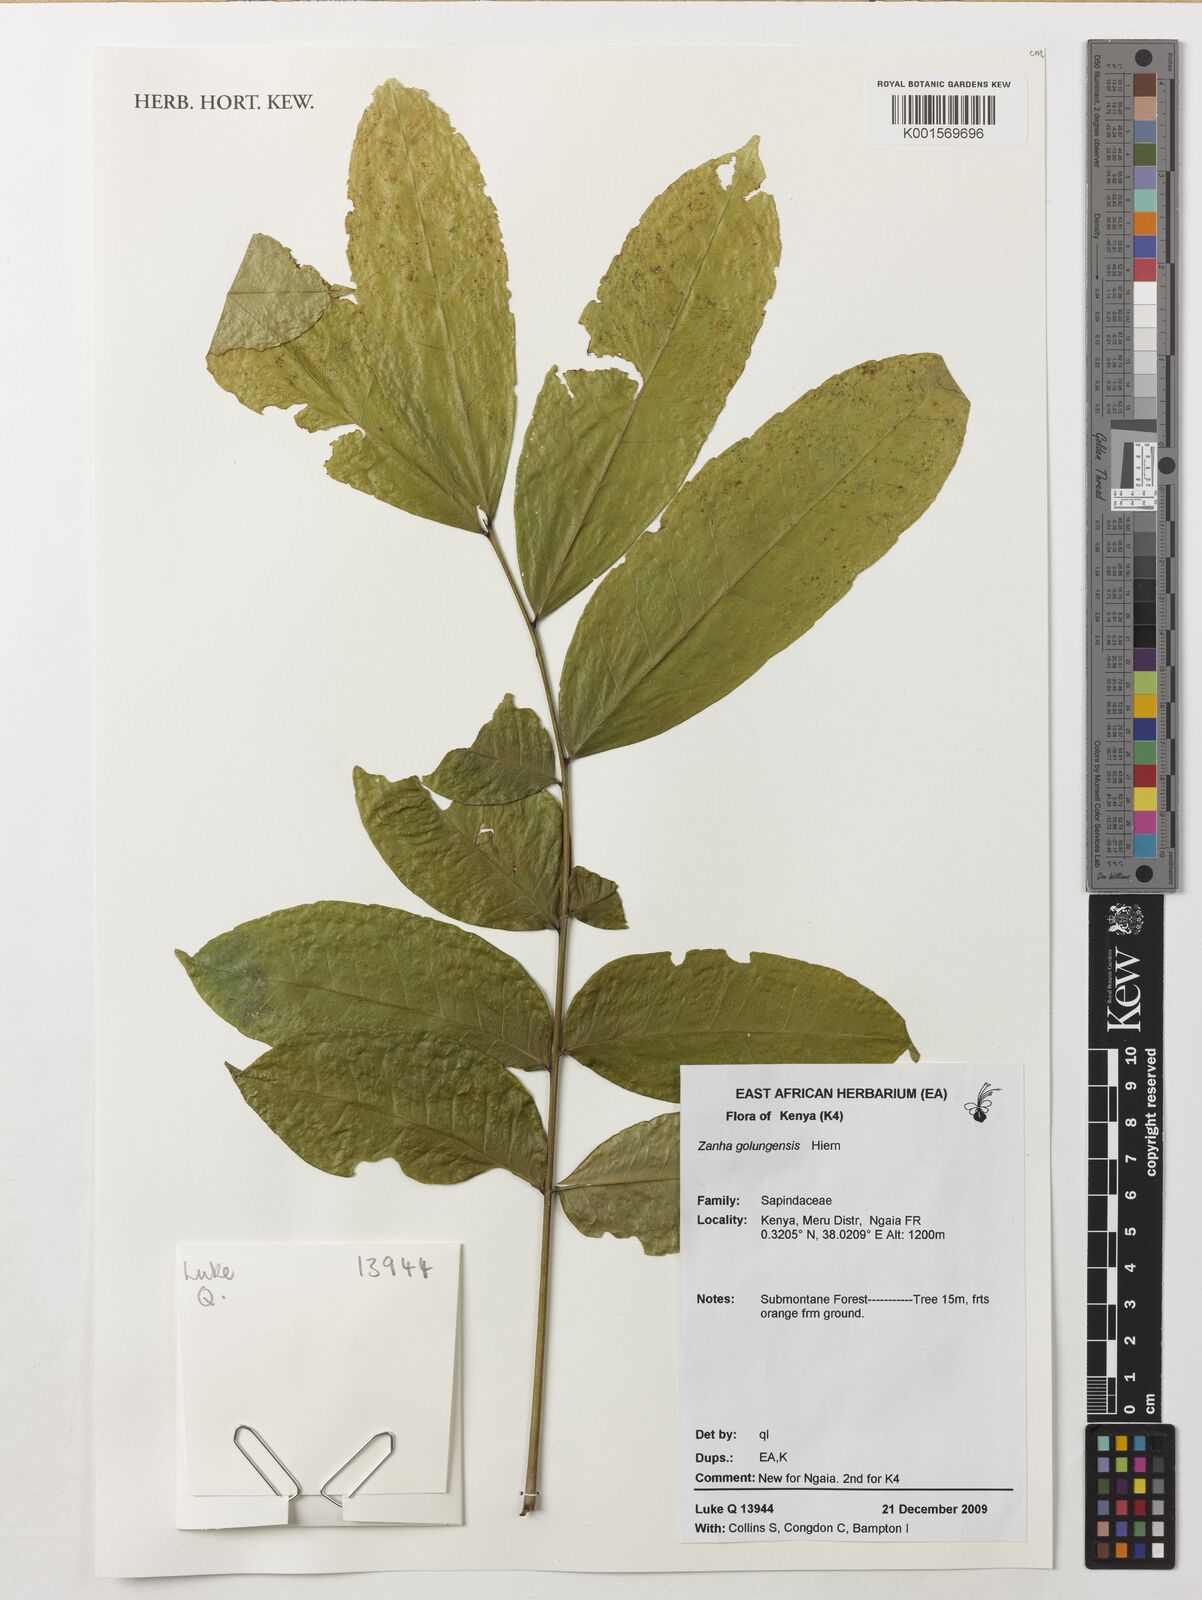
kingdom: Plantae
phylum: Tracheophyta
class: Magnoliopsida
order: Sapindales
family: Sapindaceae
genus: Zanha
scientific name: Zanha golungensis
